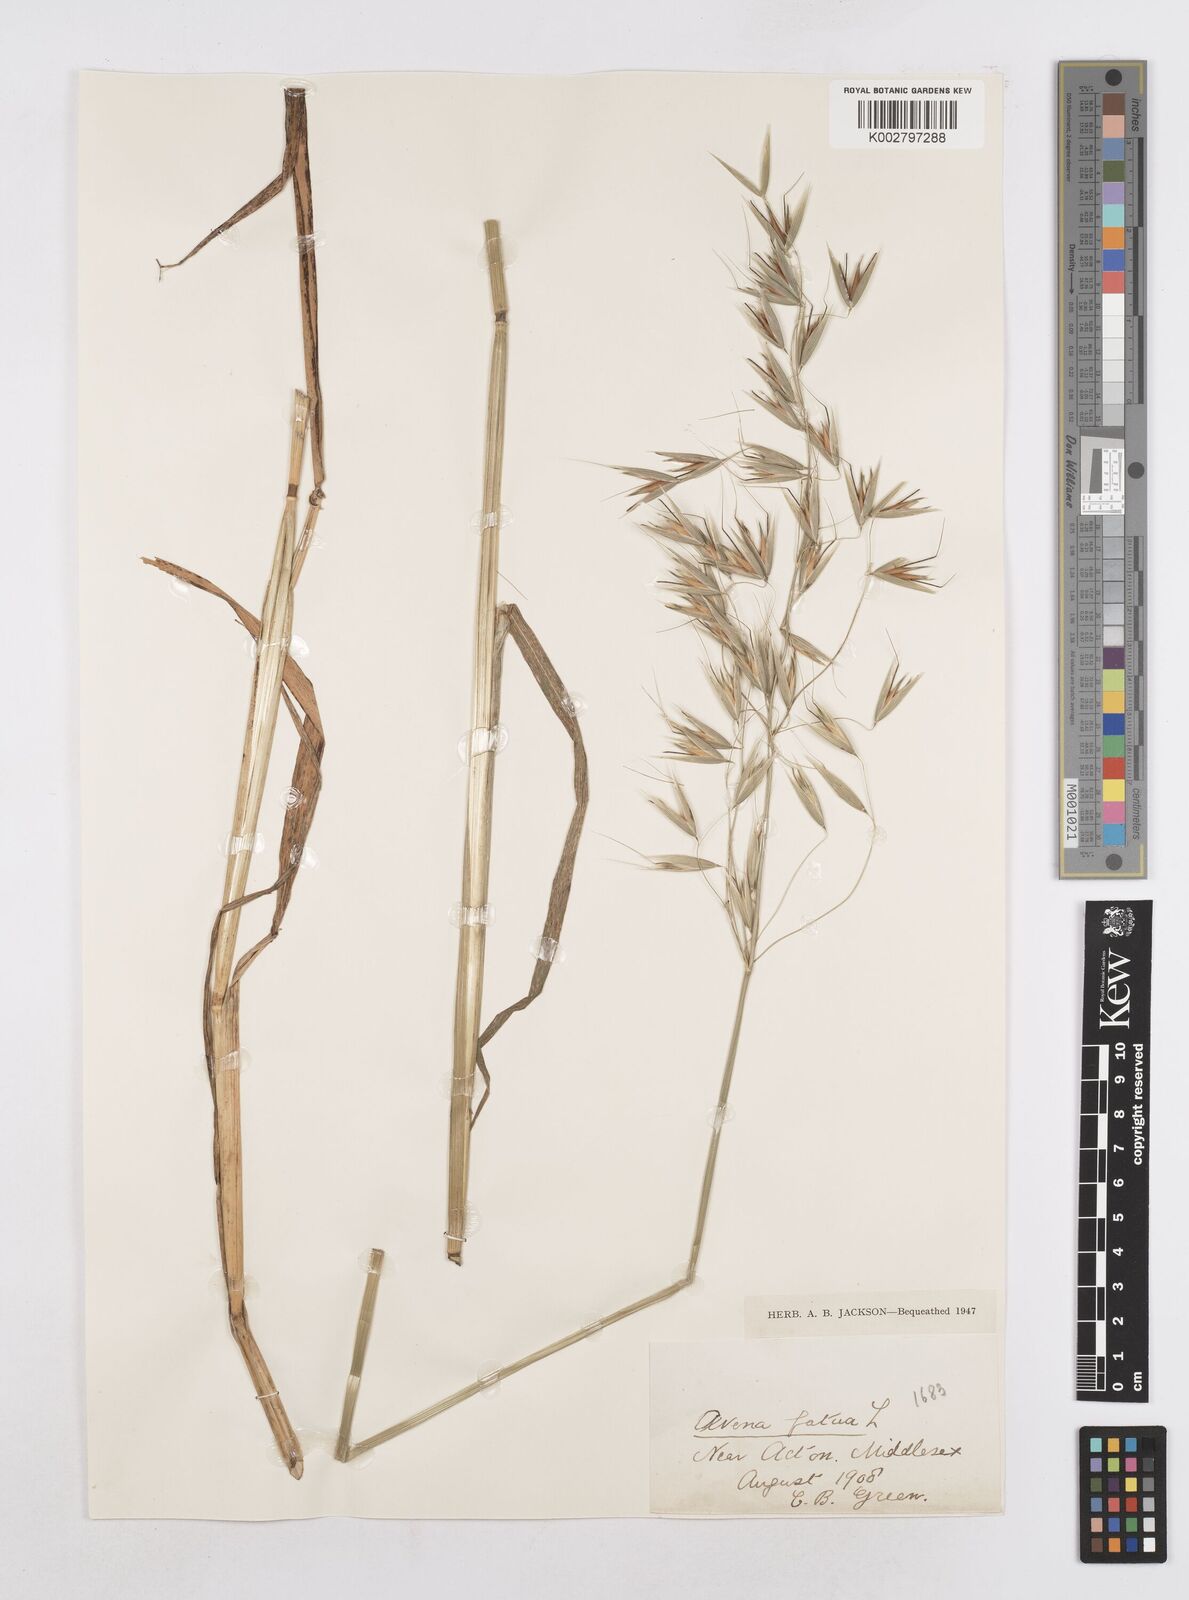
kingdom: Plantae
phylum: Tracheophyta
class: Liliopsida
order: Poales
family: Poaceae
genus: Avena
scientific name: Avena fatua
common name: Wild oat
